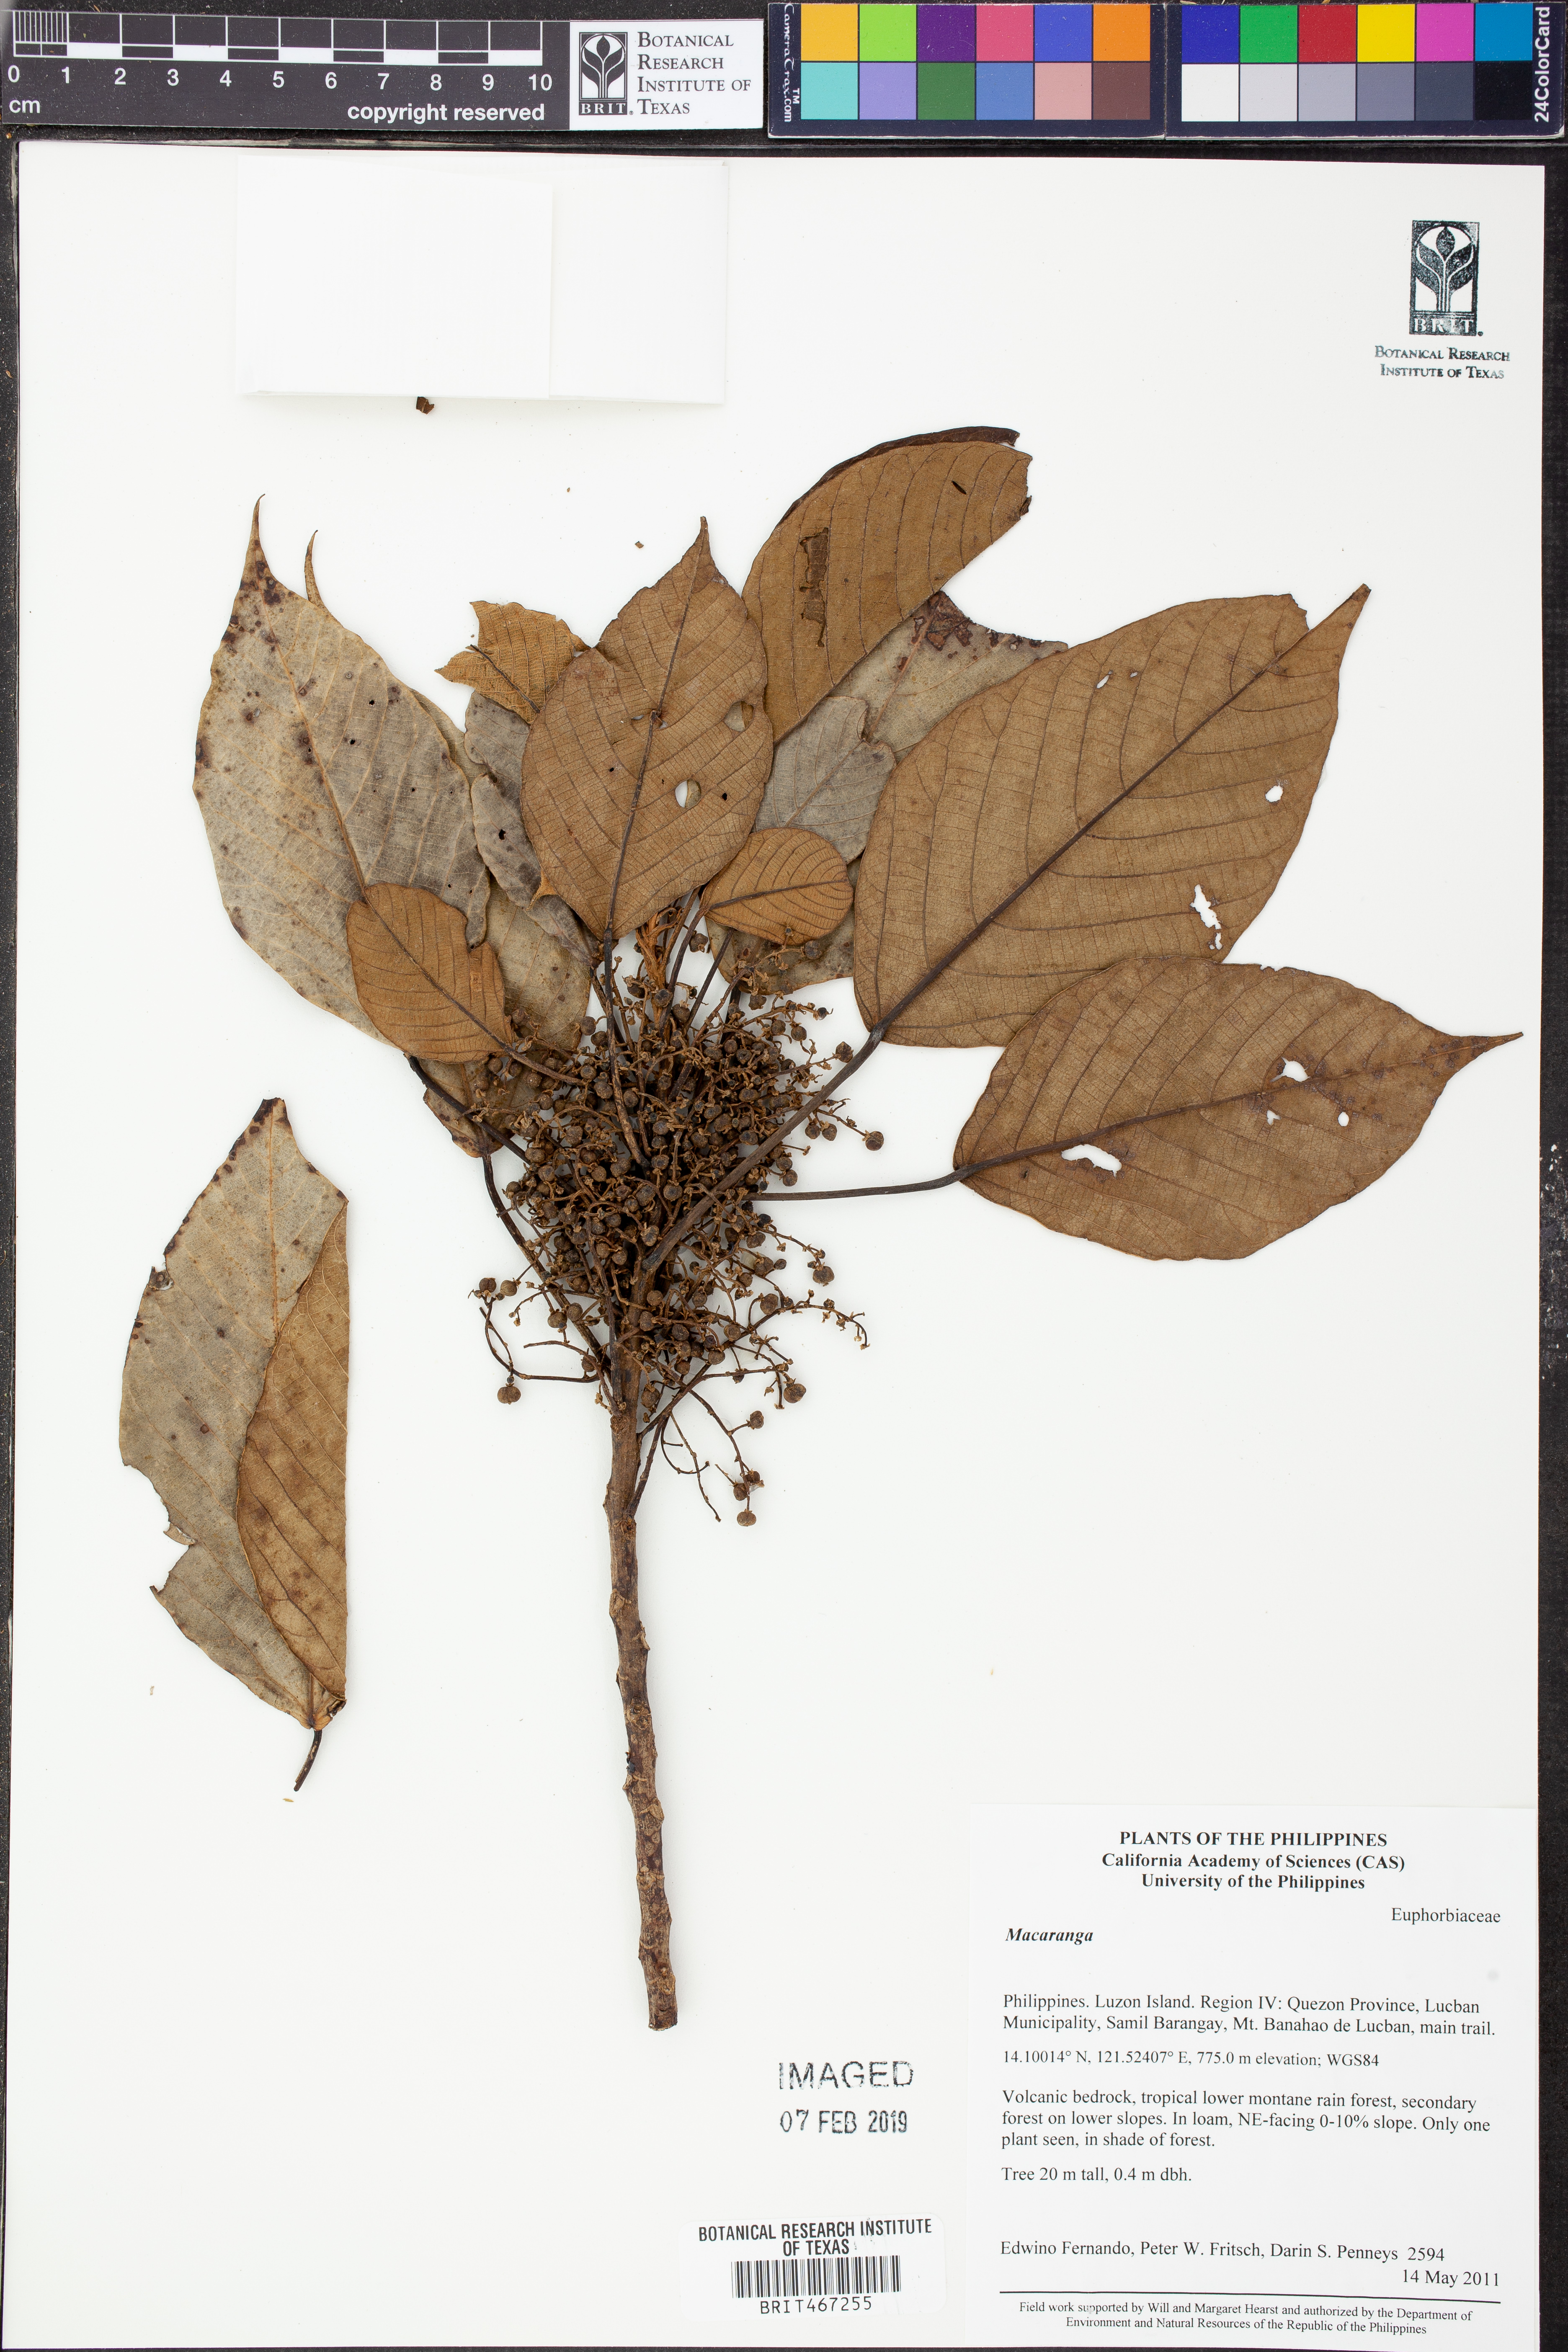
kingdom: Plantae
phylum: Tracheophyta
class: Magnoliopsida
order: Malpighiales
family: Euphorbiaceae
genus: Macaranga
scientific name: Macaranga
